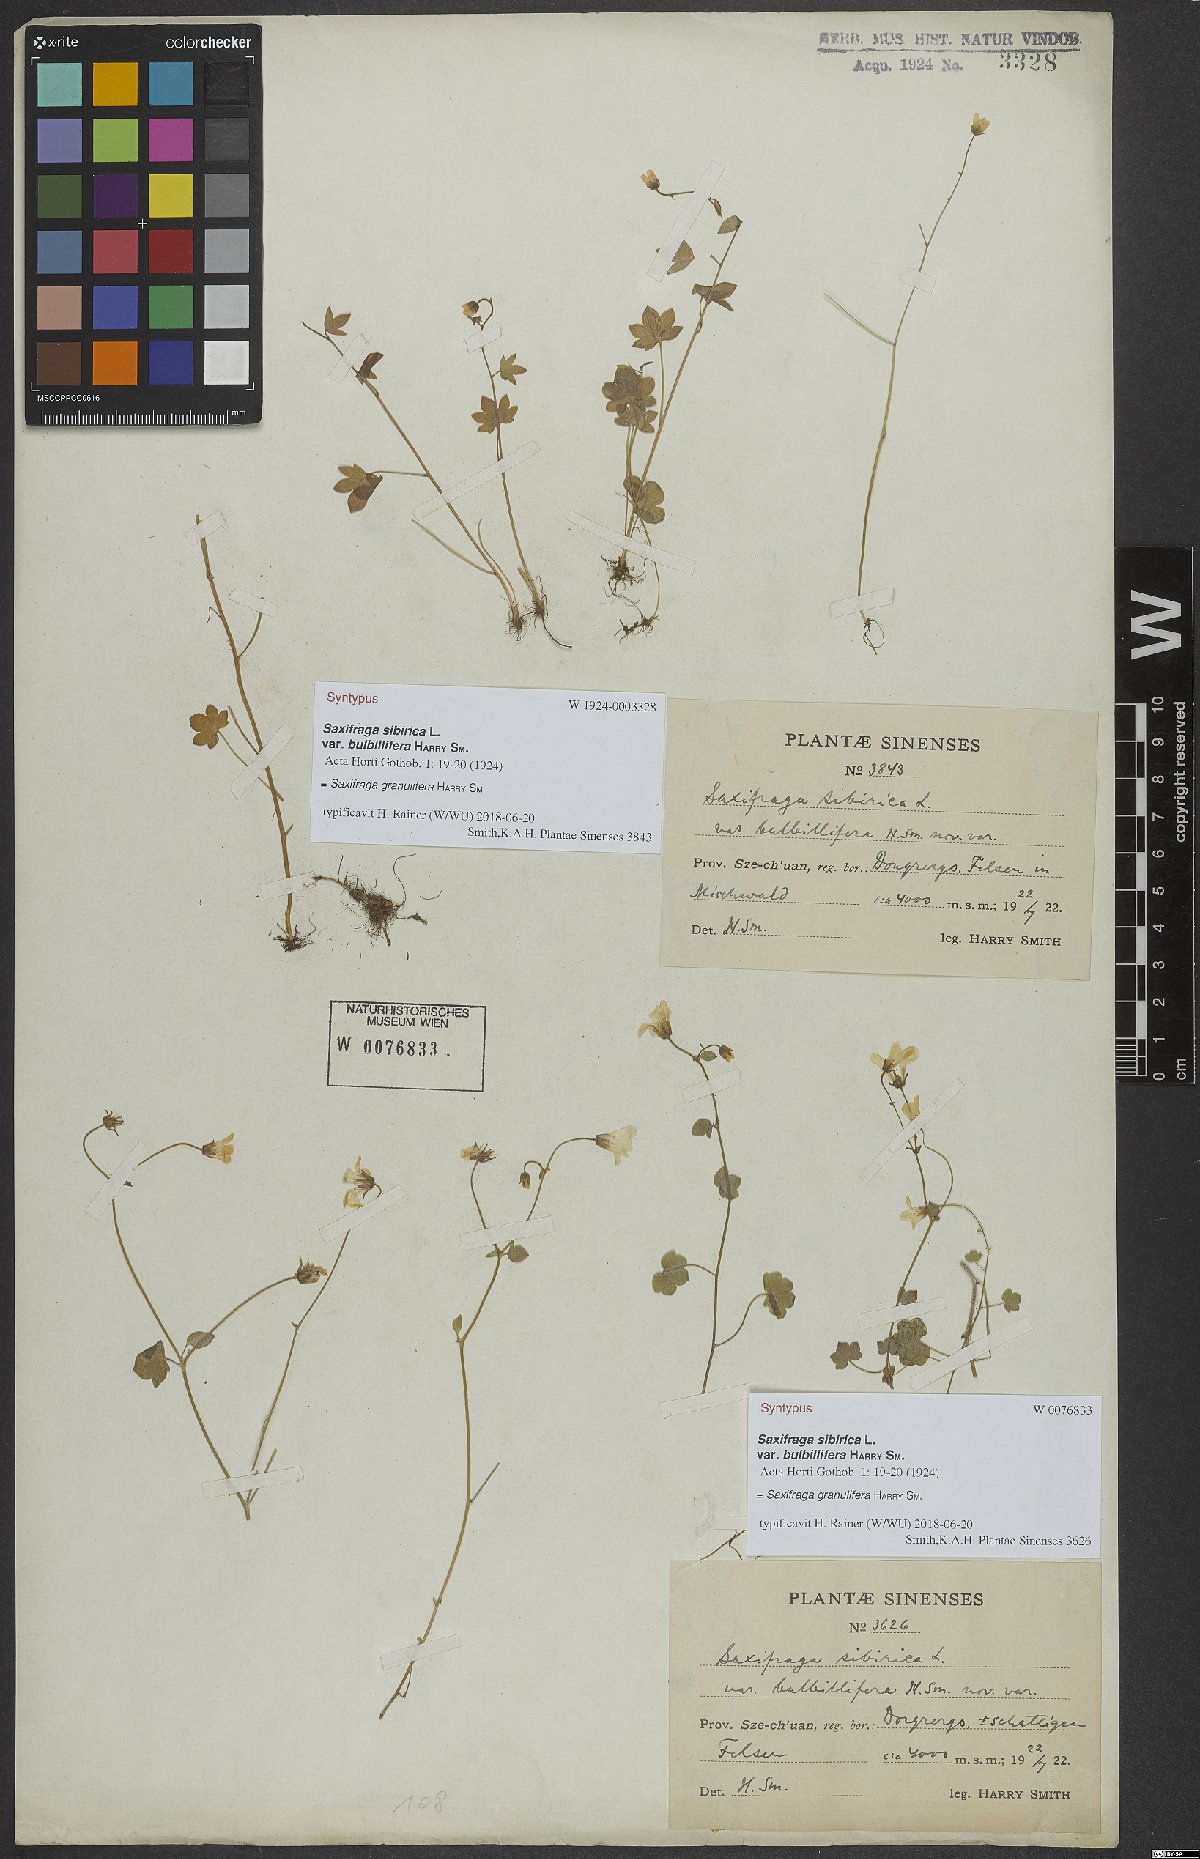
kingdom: Plantae
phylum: Tracheophyta
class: Magnoliopsida
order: Saxifragales
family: Saxifragaceae
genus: Saxifraga
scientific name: Saxifraga granulifera
